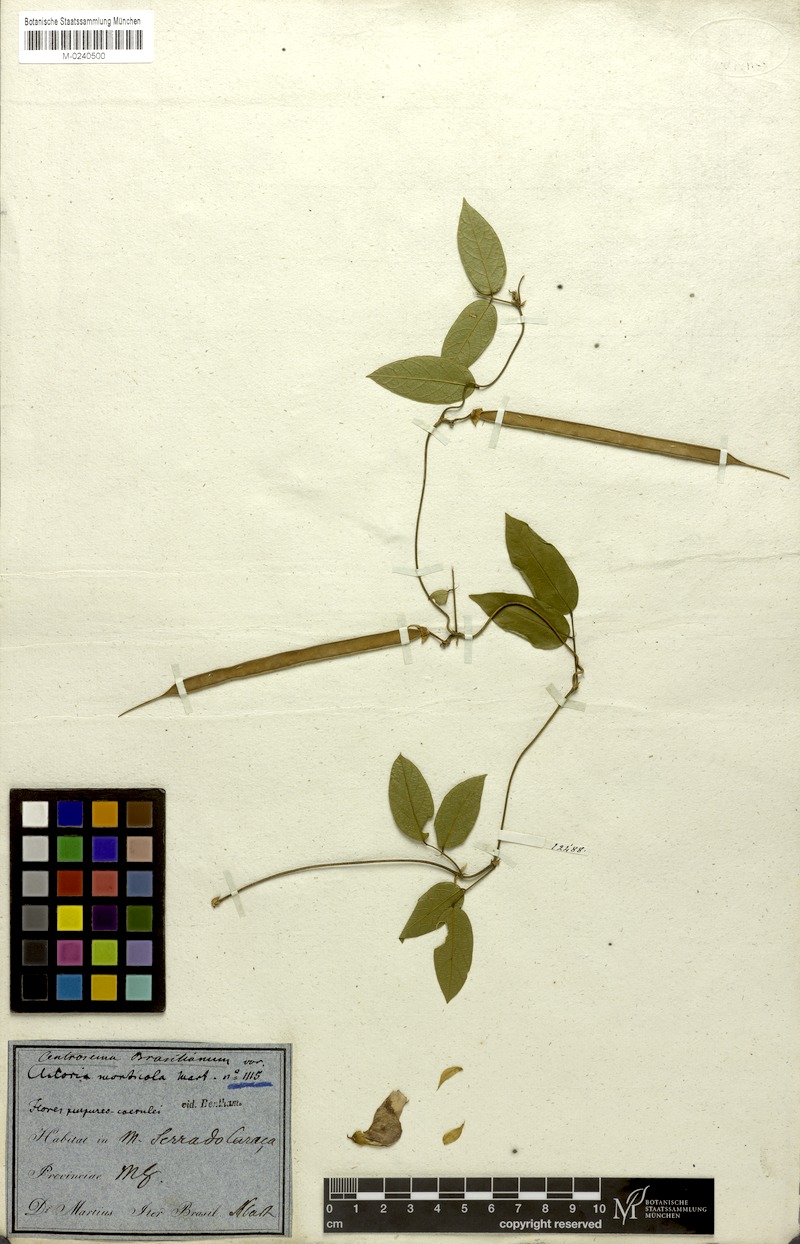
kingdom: Plantae
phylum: Tracheophyta
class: Magnoliopsida
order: Fabales
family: Fabaceae
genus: Centrosema
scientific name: Centrosema brasilianum
